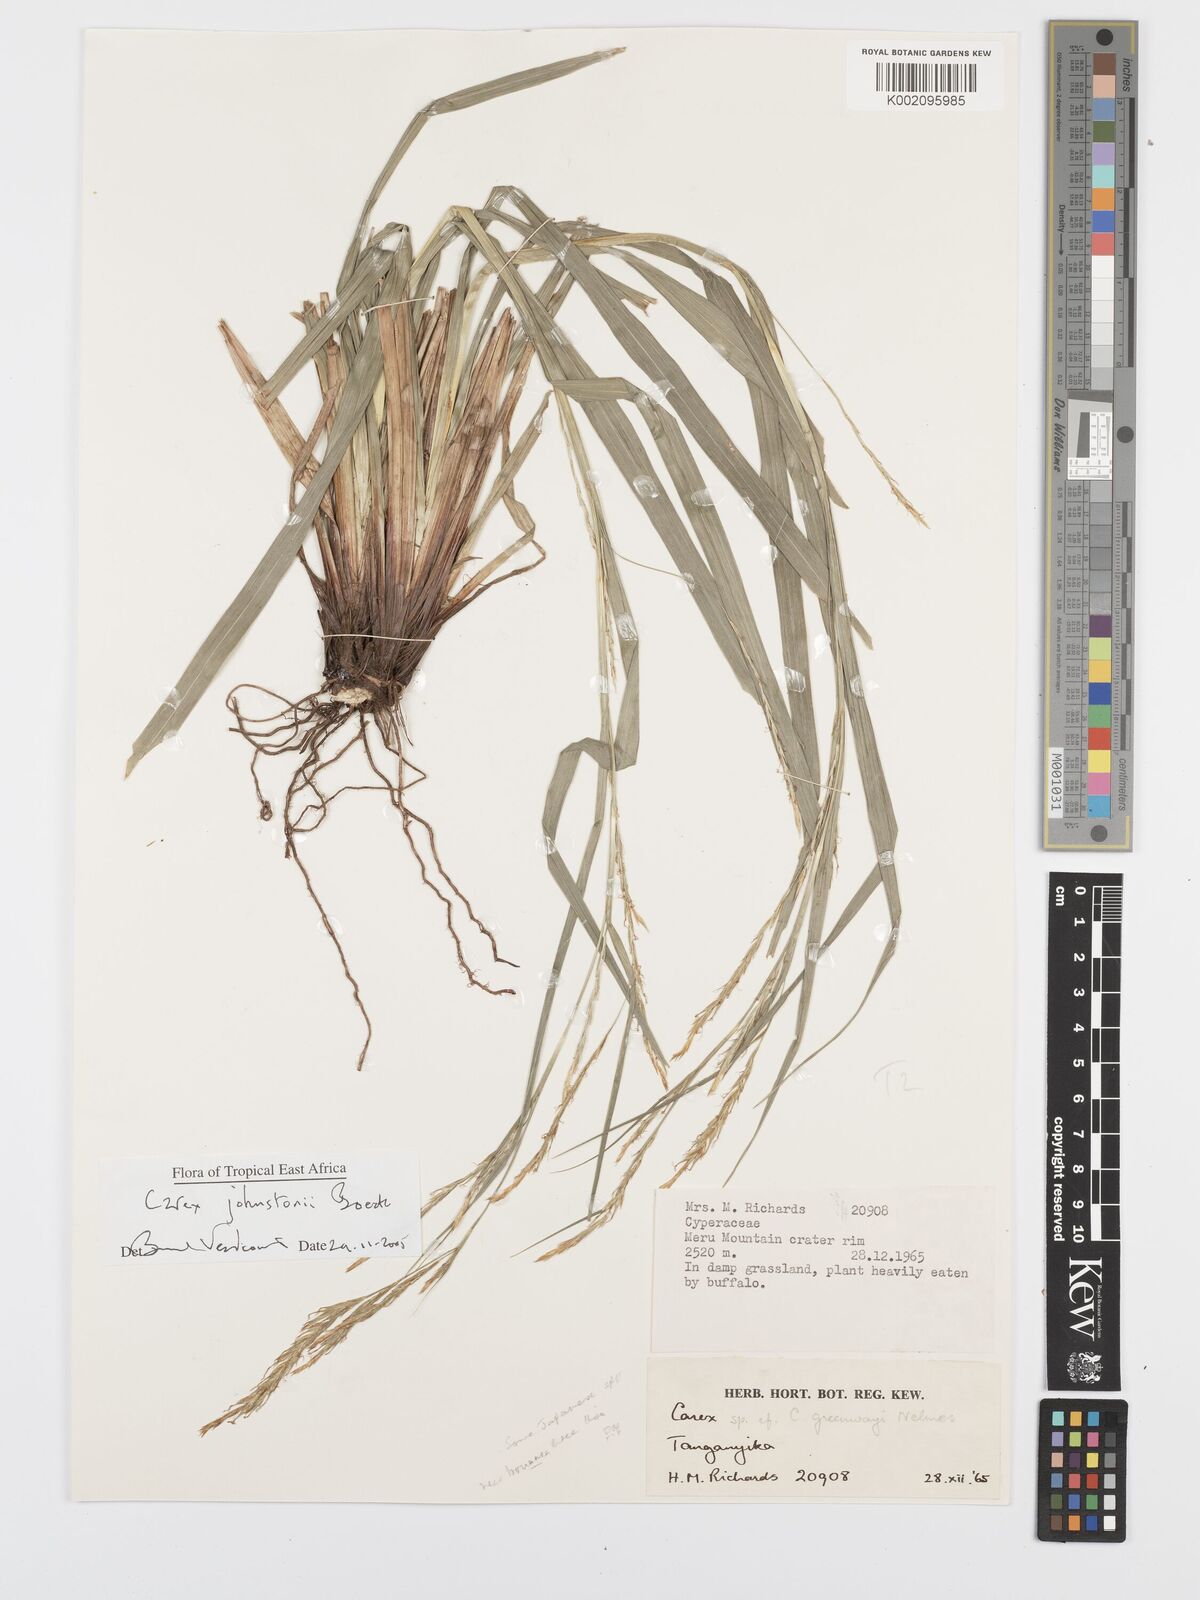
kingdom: Plantae
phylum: Tracheophyta
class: Liliopsida
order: Poales
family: Cyperaceae
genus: Carex
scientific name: Carex johnstonii
